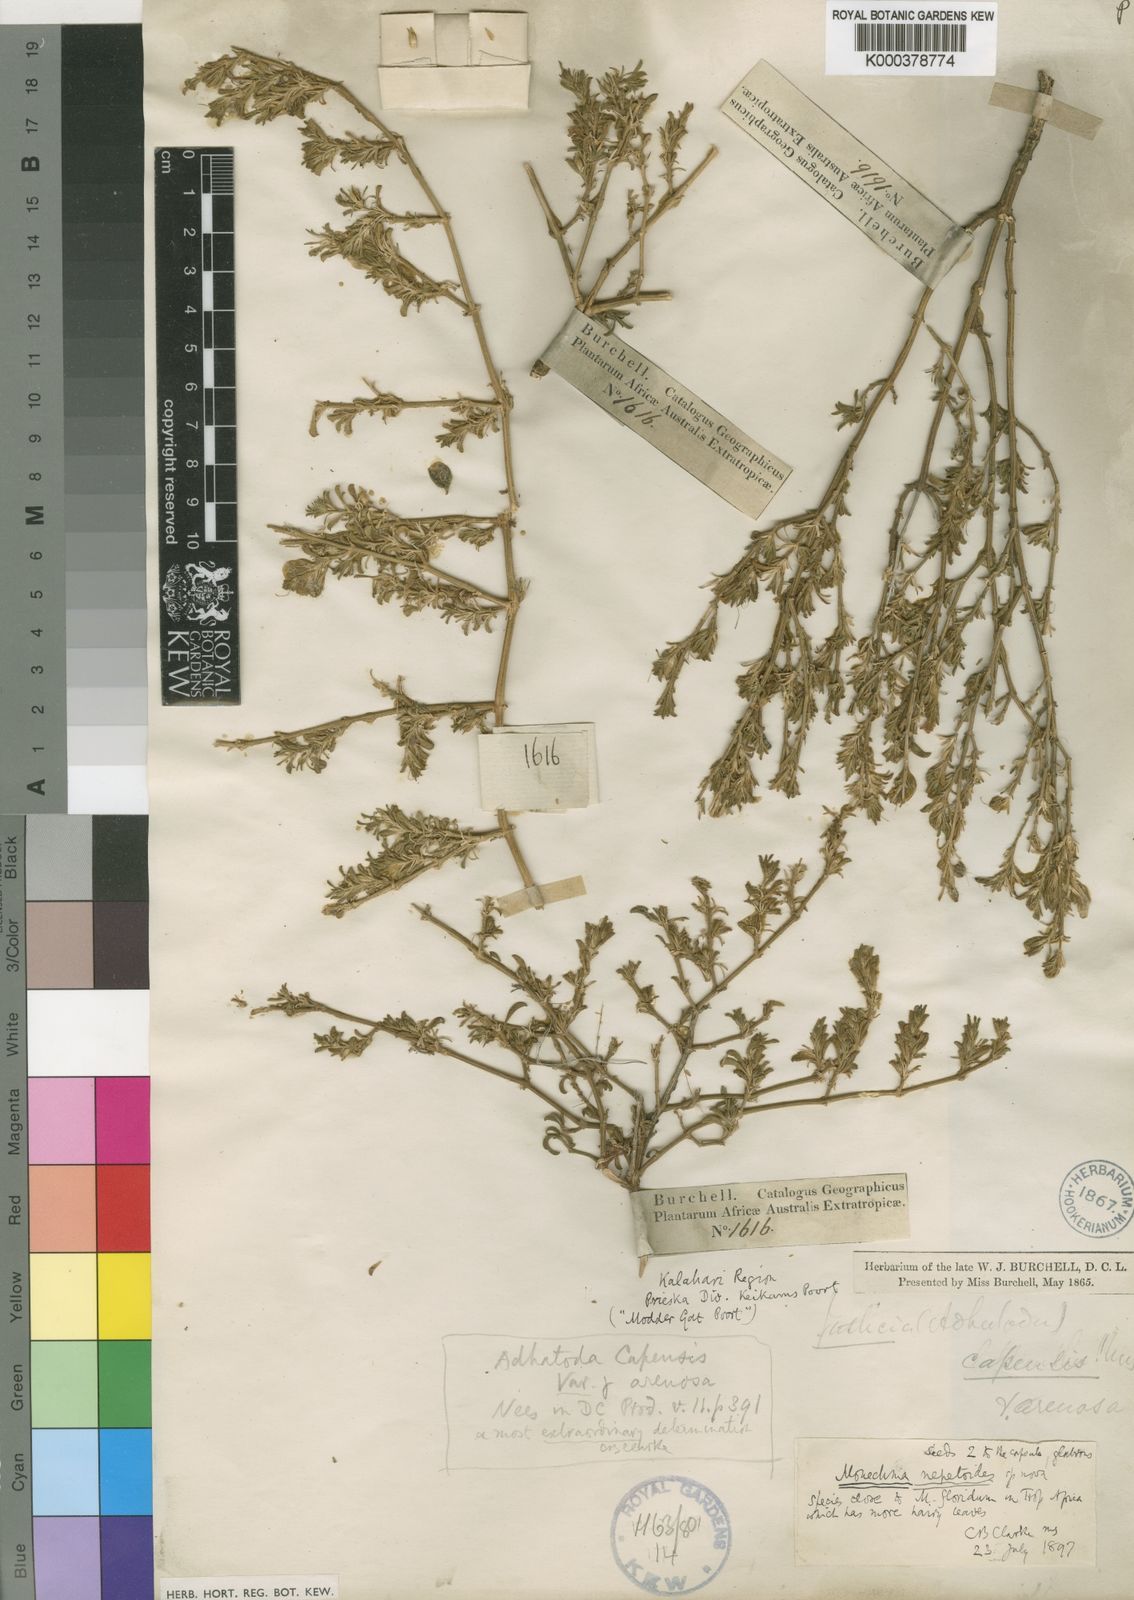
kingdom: Plantae
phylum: Tracheophyta
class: Magnoliopsida
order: Lamiales
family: Acanthaceae
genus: Monechma
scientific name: Monechma divaricatum
